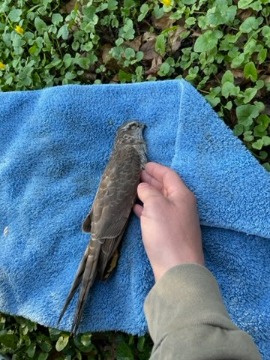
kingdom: Animalia
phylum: Chordata
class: Aves
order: Accipitriformes
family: Accipitridae
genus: Accipiter
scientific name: Accipiter nisus
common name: Spurvehøg
